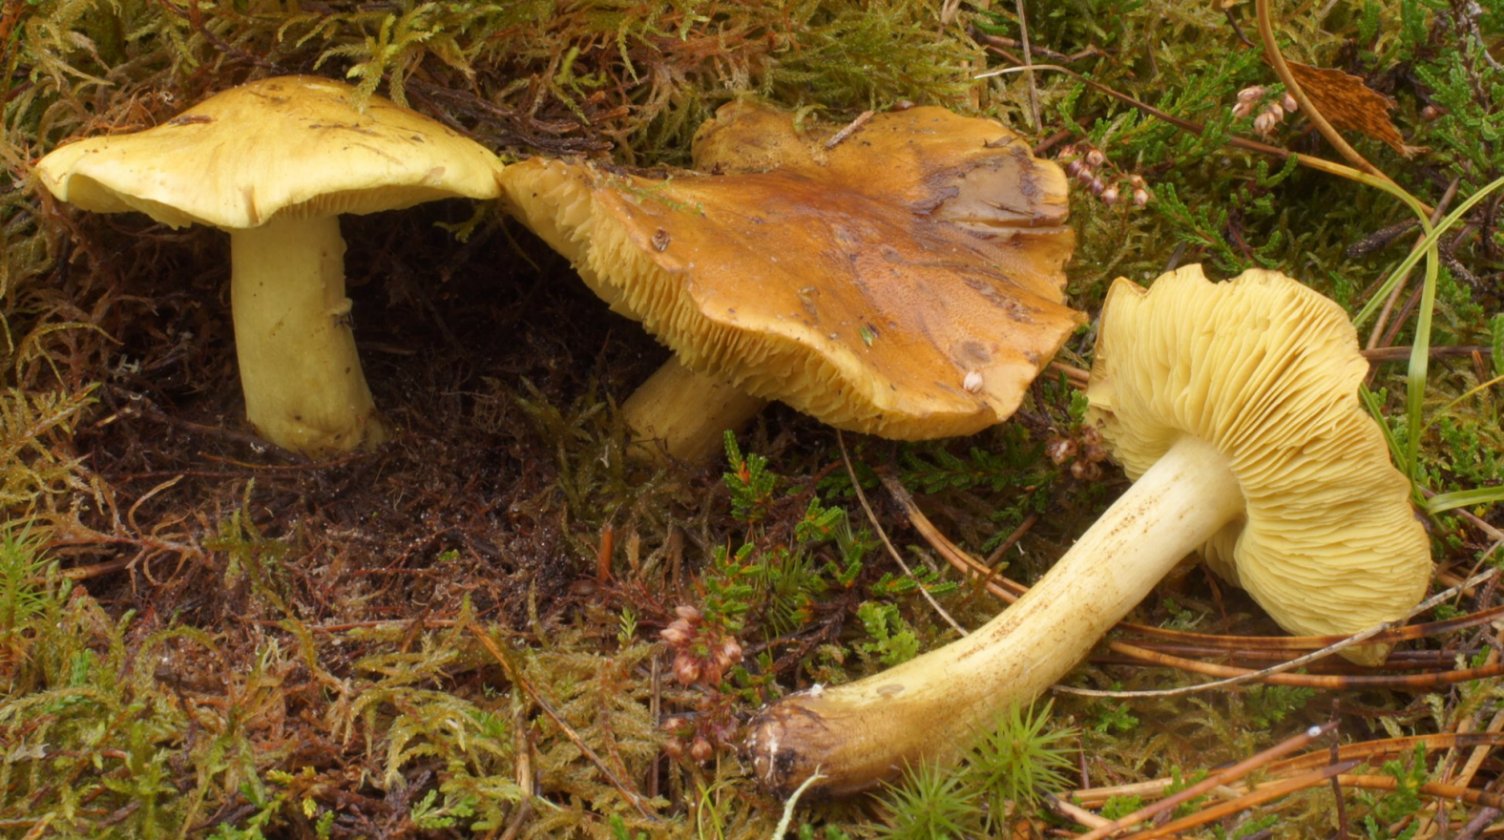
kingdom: Fungi
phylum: Basidiomycota
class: Agaricomycetes
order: Agaricales
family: Tricholomataceae
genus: Tricholoma
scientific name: Tricholoma equestre
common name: ægte ridderhat
